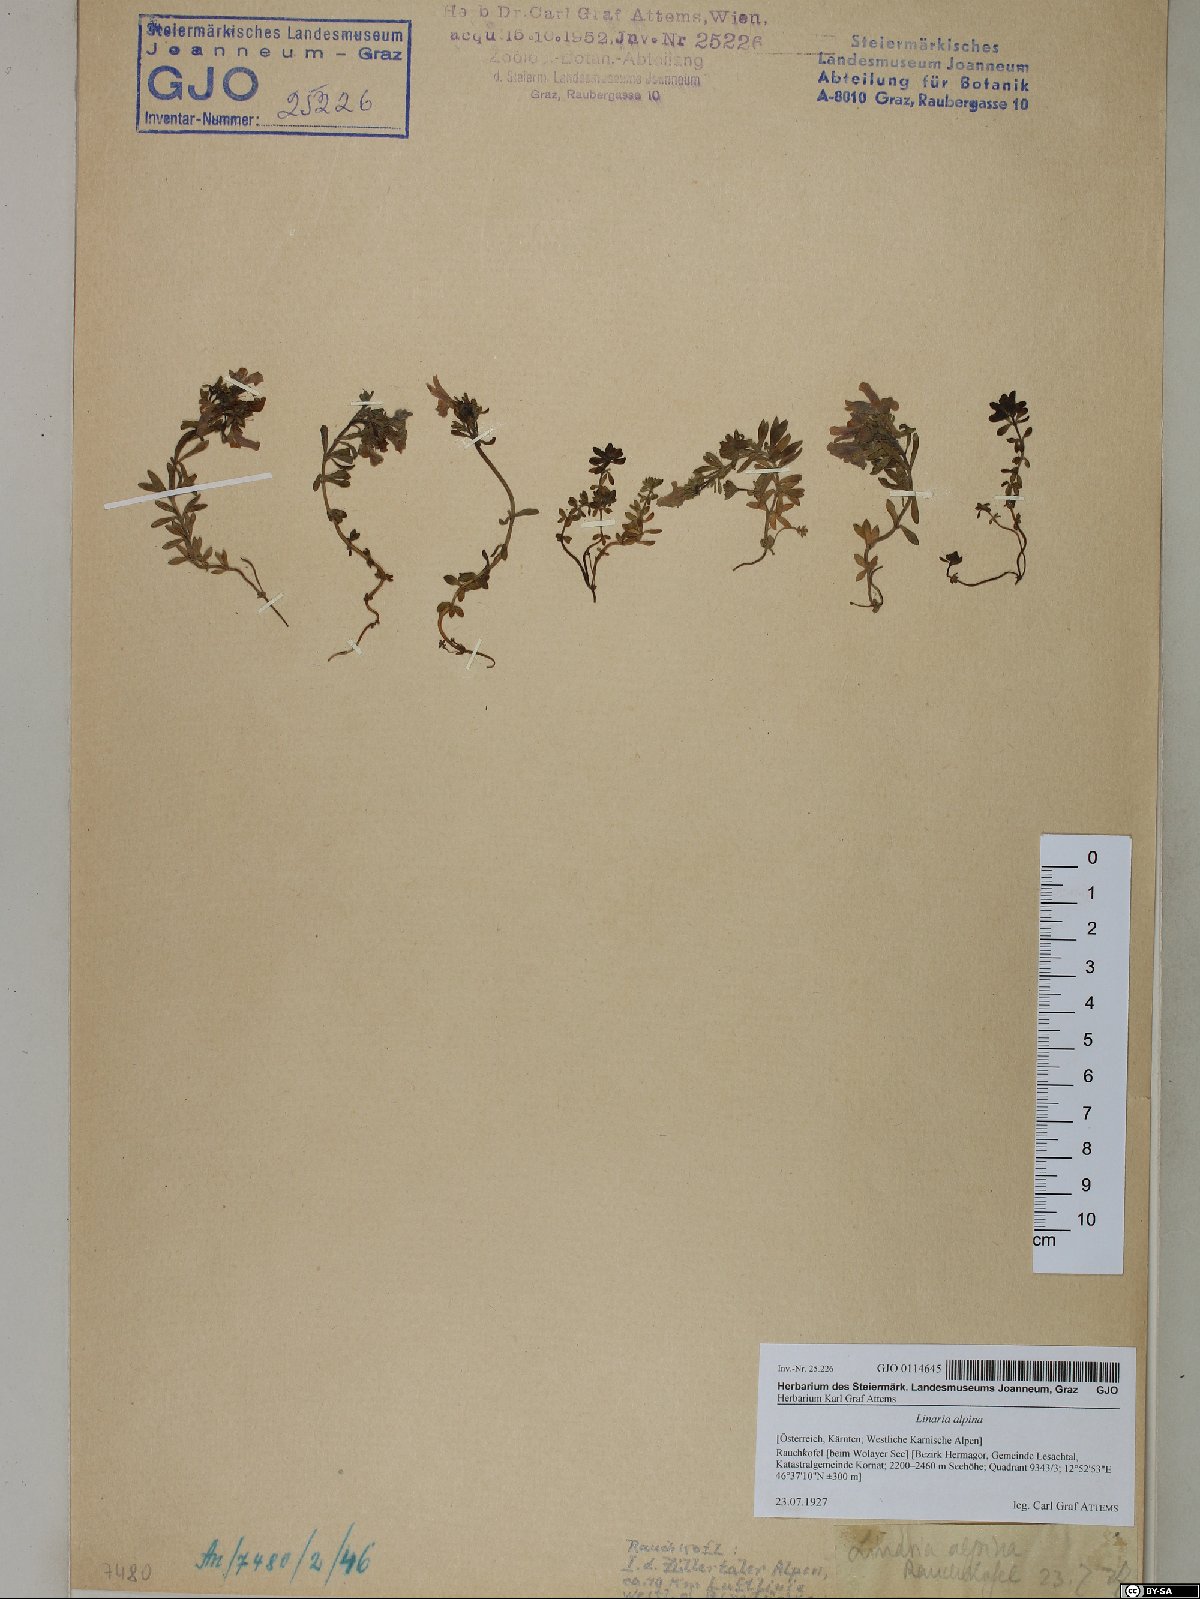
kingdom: Plantae
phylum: Tracheophyta
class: Magnoliopsida
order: Lamiales
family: Plantaginaceae
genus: Linaria
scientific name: Linaria alpina
